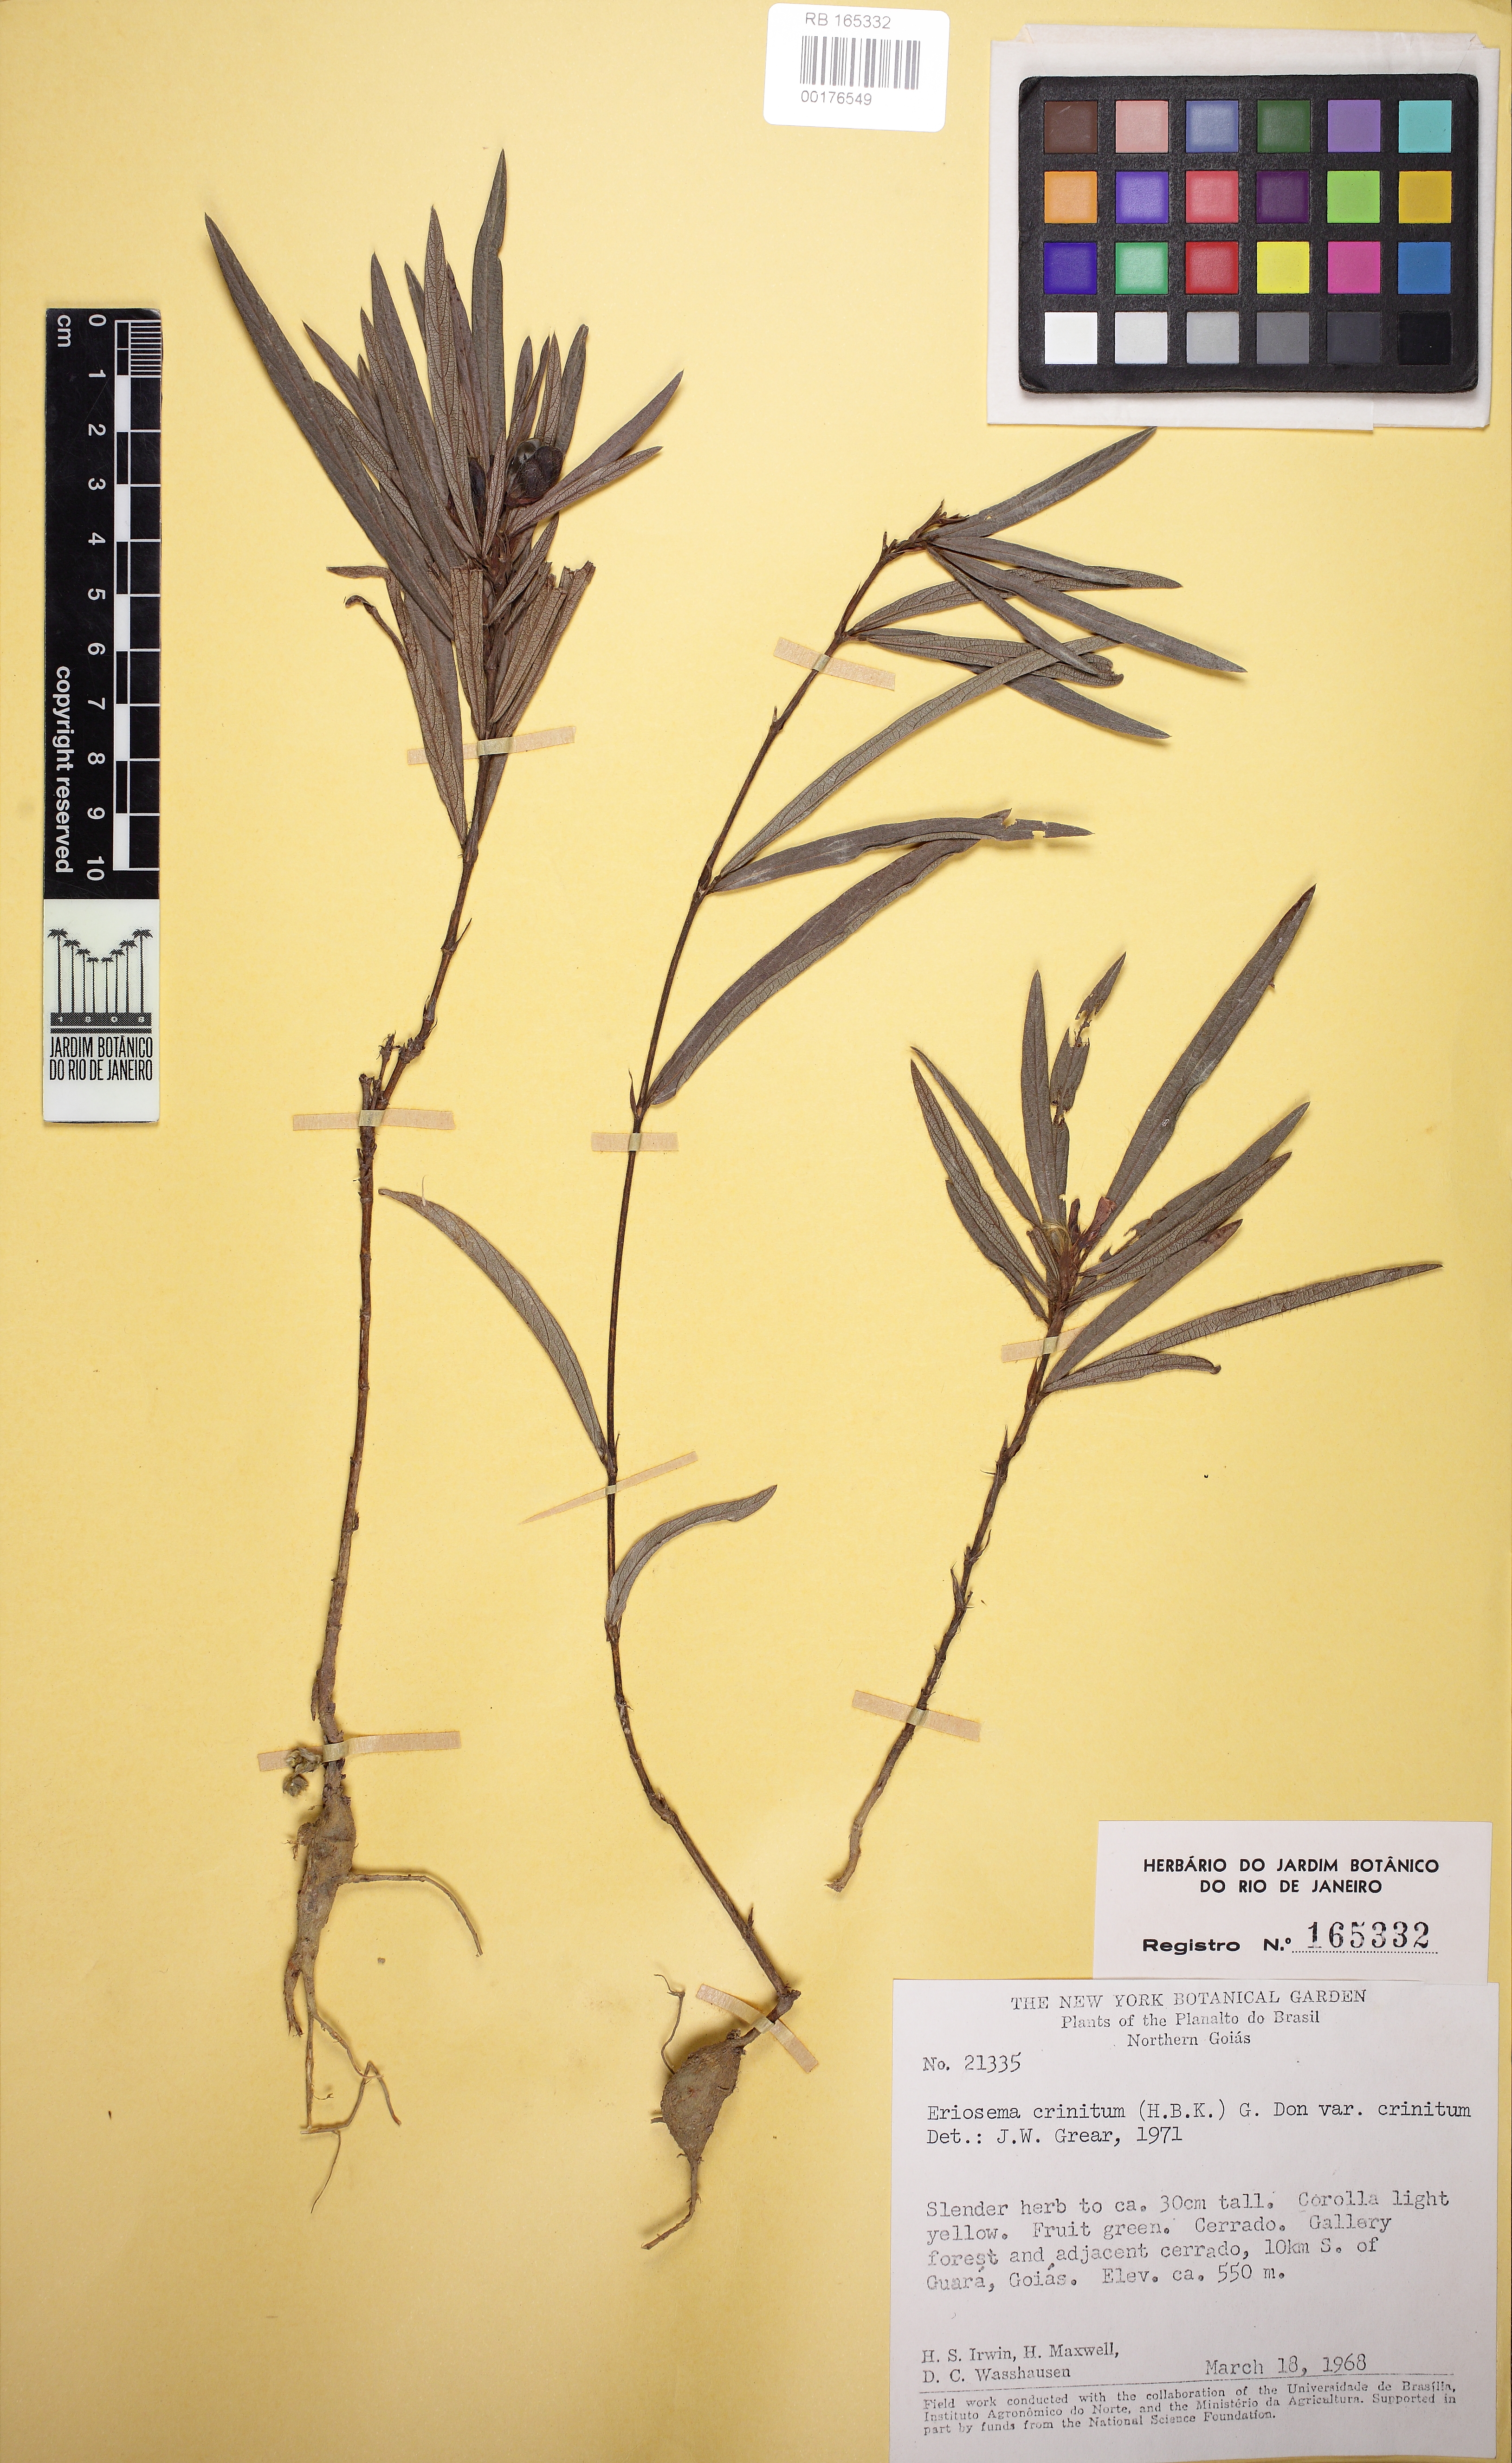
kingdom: Plantae
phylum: Tracheophyta
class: Magnoliopsida
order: Fabales
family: Fabaceae
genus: Eriosema
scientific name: Eriosema crinitum
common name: Sand pea
